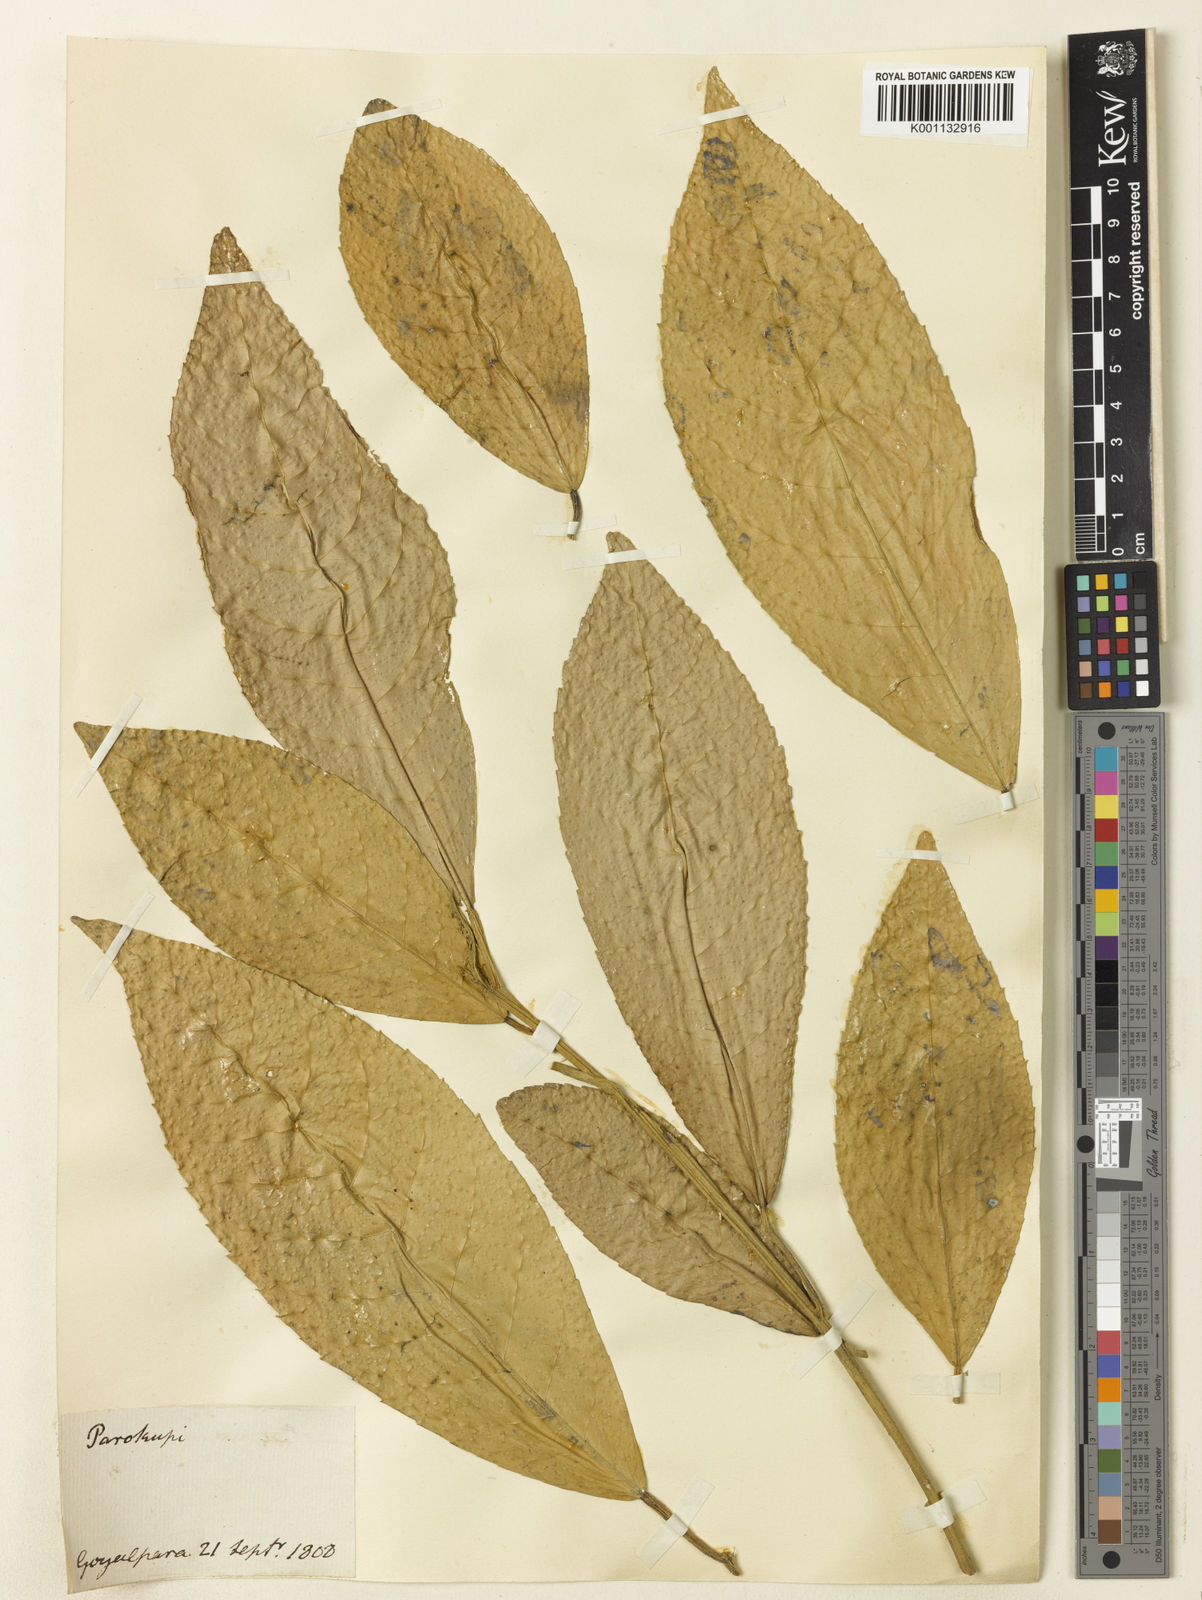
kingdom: Plantae
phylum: Tracheophyta
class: Magnoliopsida
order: Malpighiales
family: Euphorbiaceae
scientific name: Euphorbiaceae
